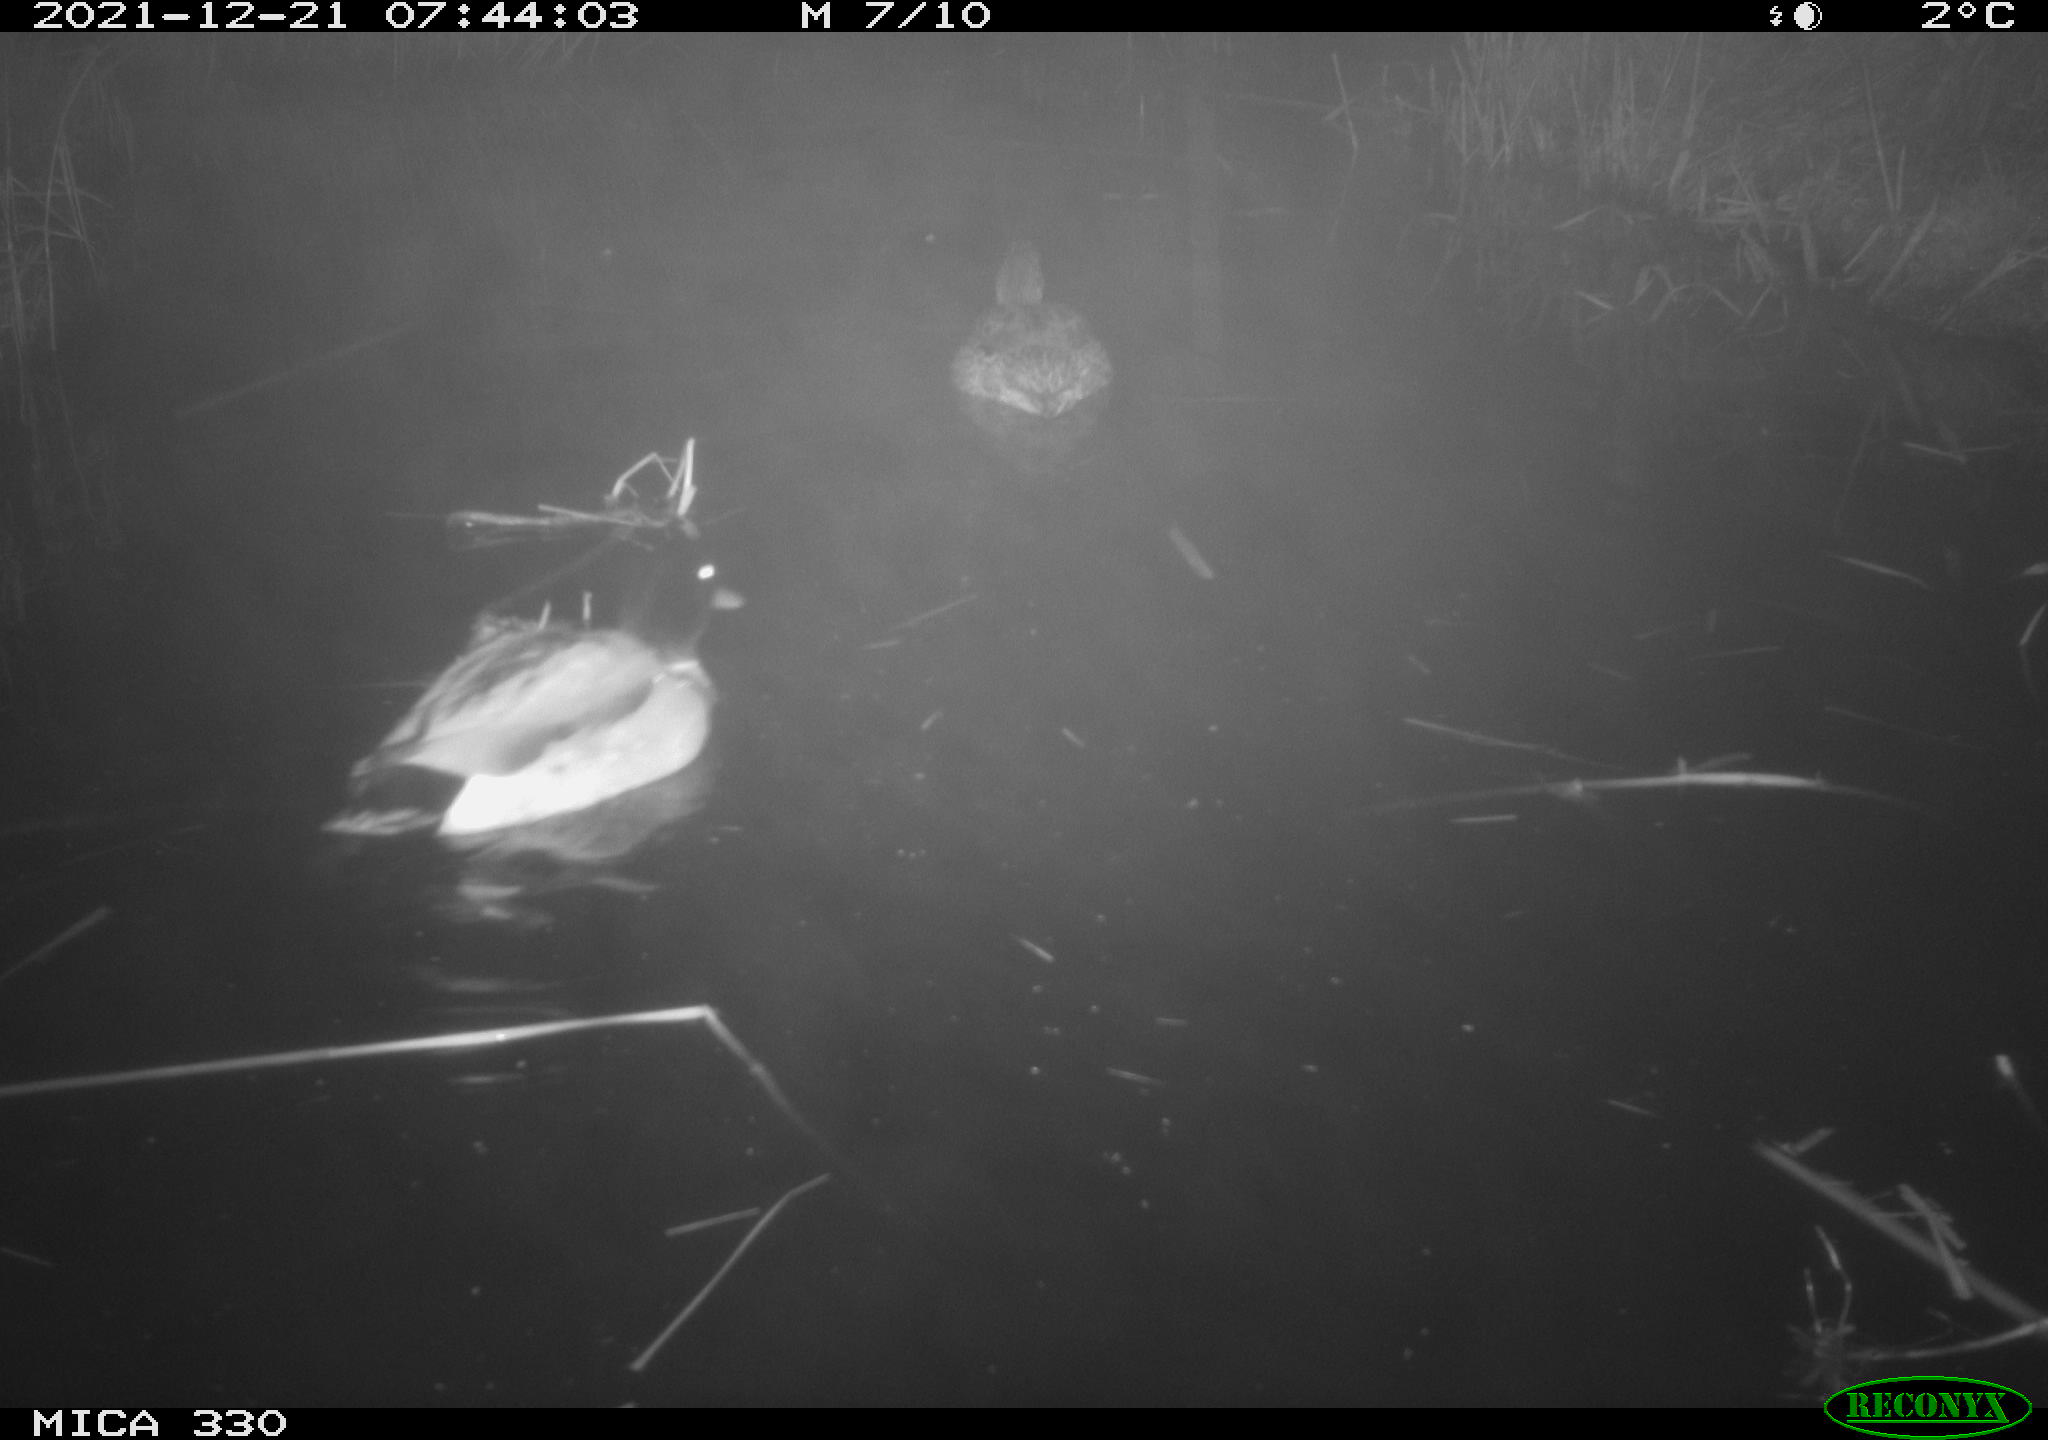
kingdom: Animalia
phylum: Chordata
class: Aves
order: Anseriformes
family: Anatidae
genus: Anas
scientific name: Anas platyrhynchos
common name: Mallard
